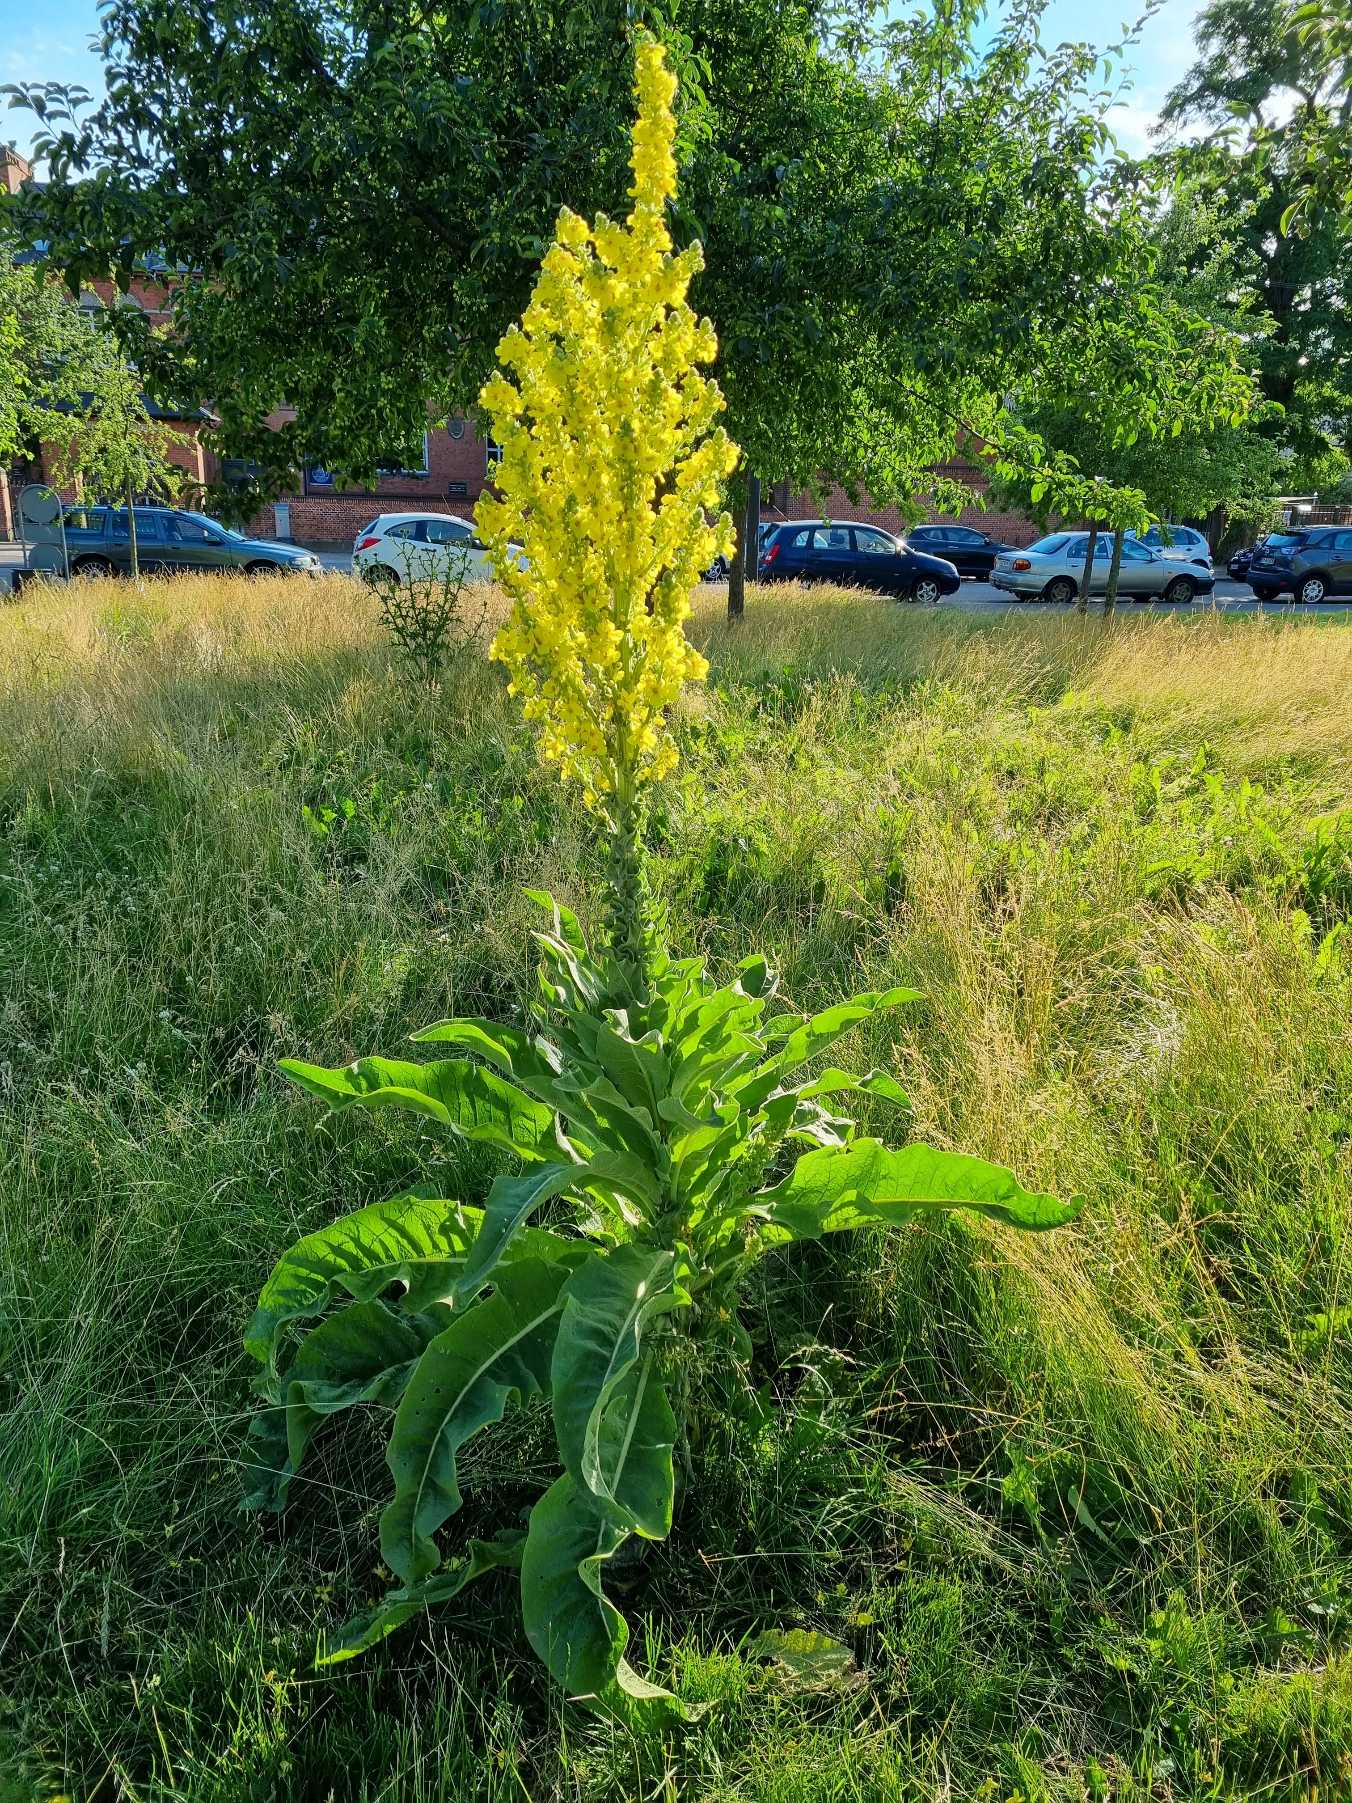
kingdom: Plantae
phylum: Tracheophyta
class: Magnoliopsida
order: Lamiales
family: Scrophulariaceae
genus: Verbascum
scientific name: Verbascum speciosum
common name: Kandelaber-kongelys
